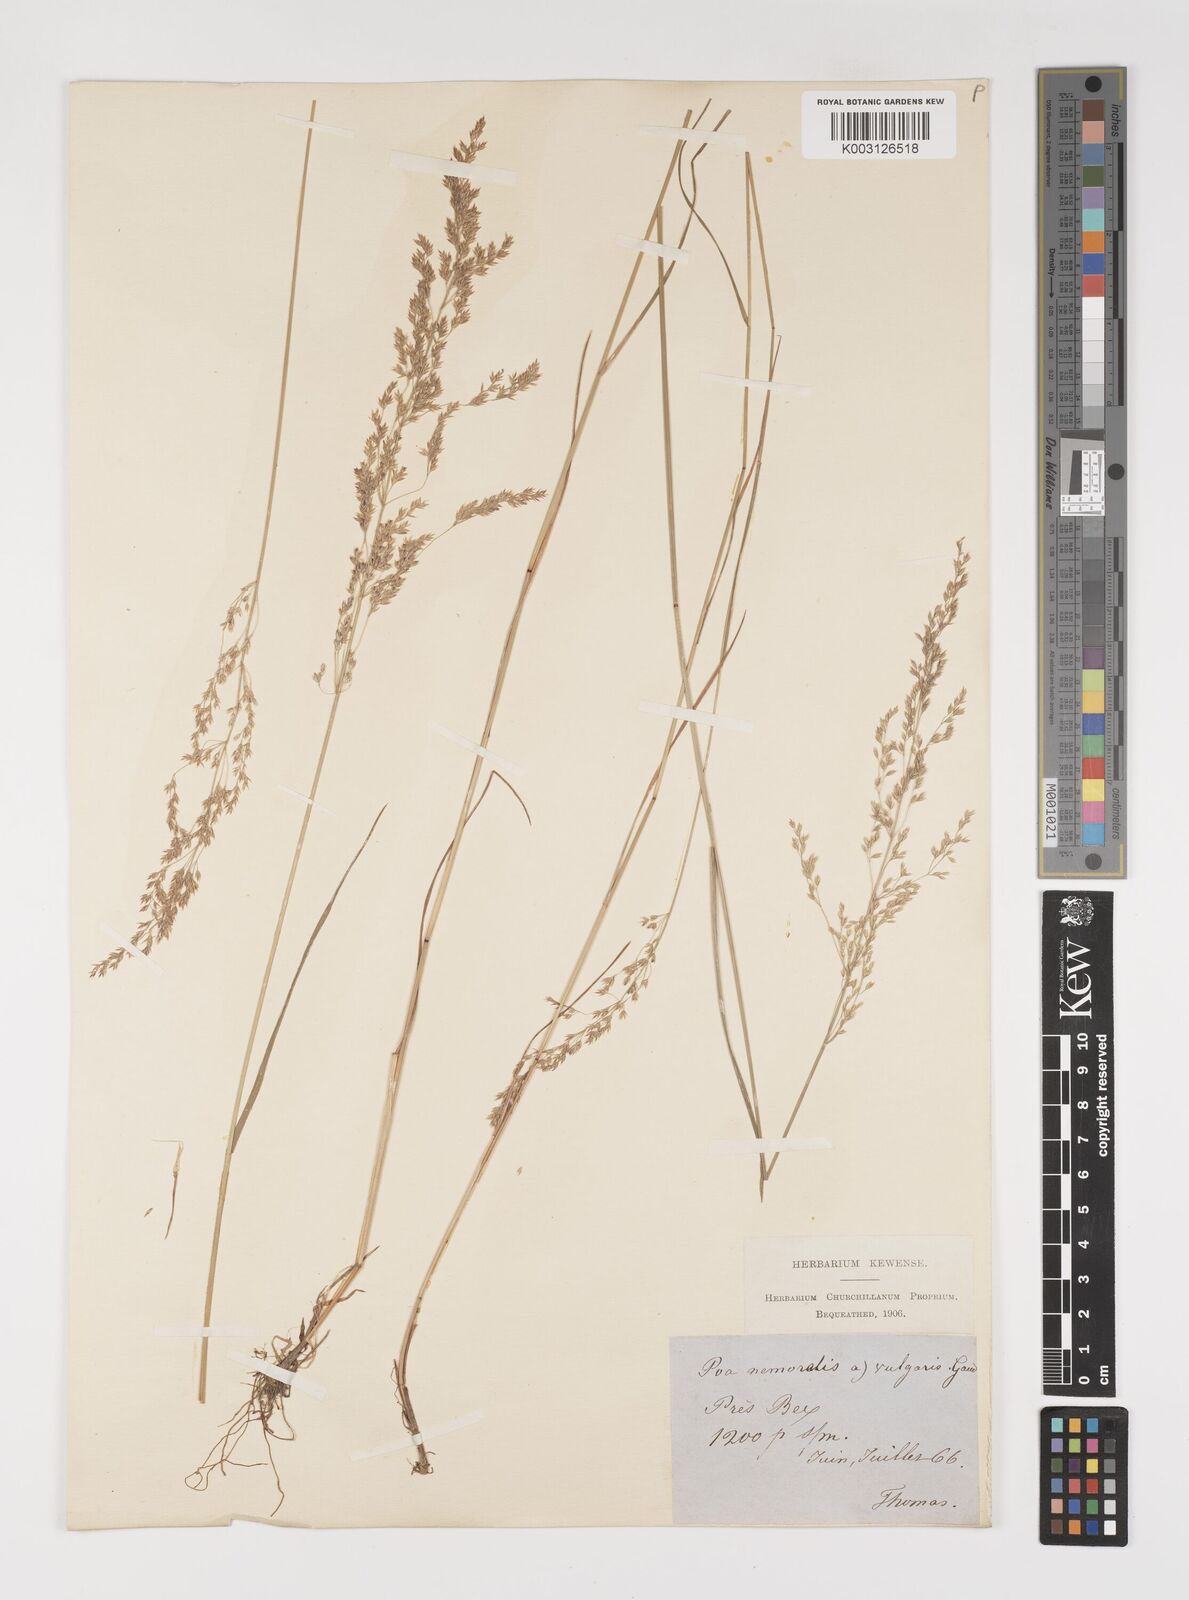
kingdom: Plantae
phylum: Tracheophyta
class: Liliopsida
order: Poales
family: Poaceae
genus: Poa
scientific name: Poa nemoralis
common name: Wood bluegrass
